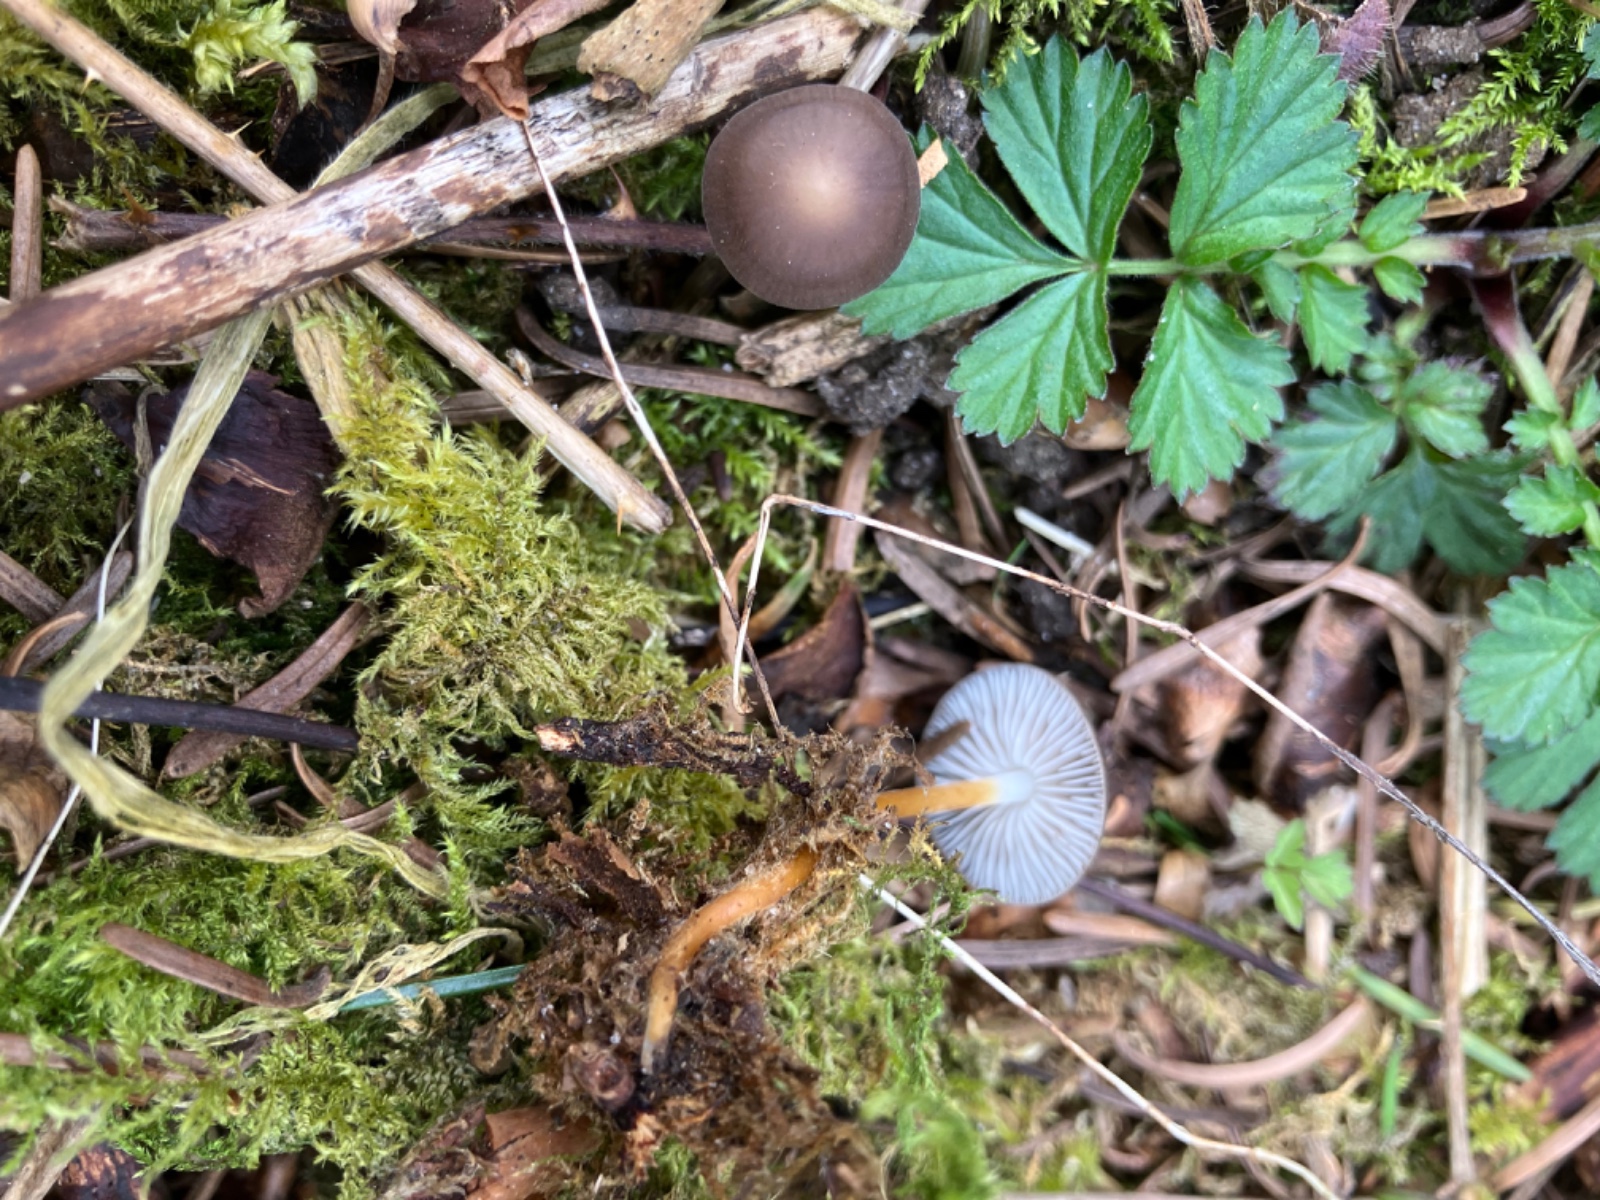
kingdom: Fungi
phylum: Basidiomycota
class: Agaricomycetes
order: Agaricales
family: Physalacriaceae
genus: Strobilurus
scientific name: Strobilurus esculentus
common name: gran-koglehat
